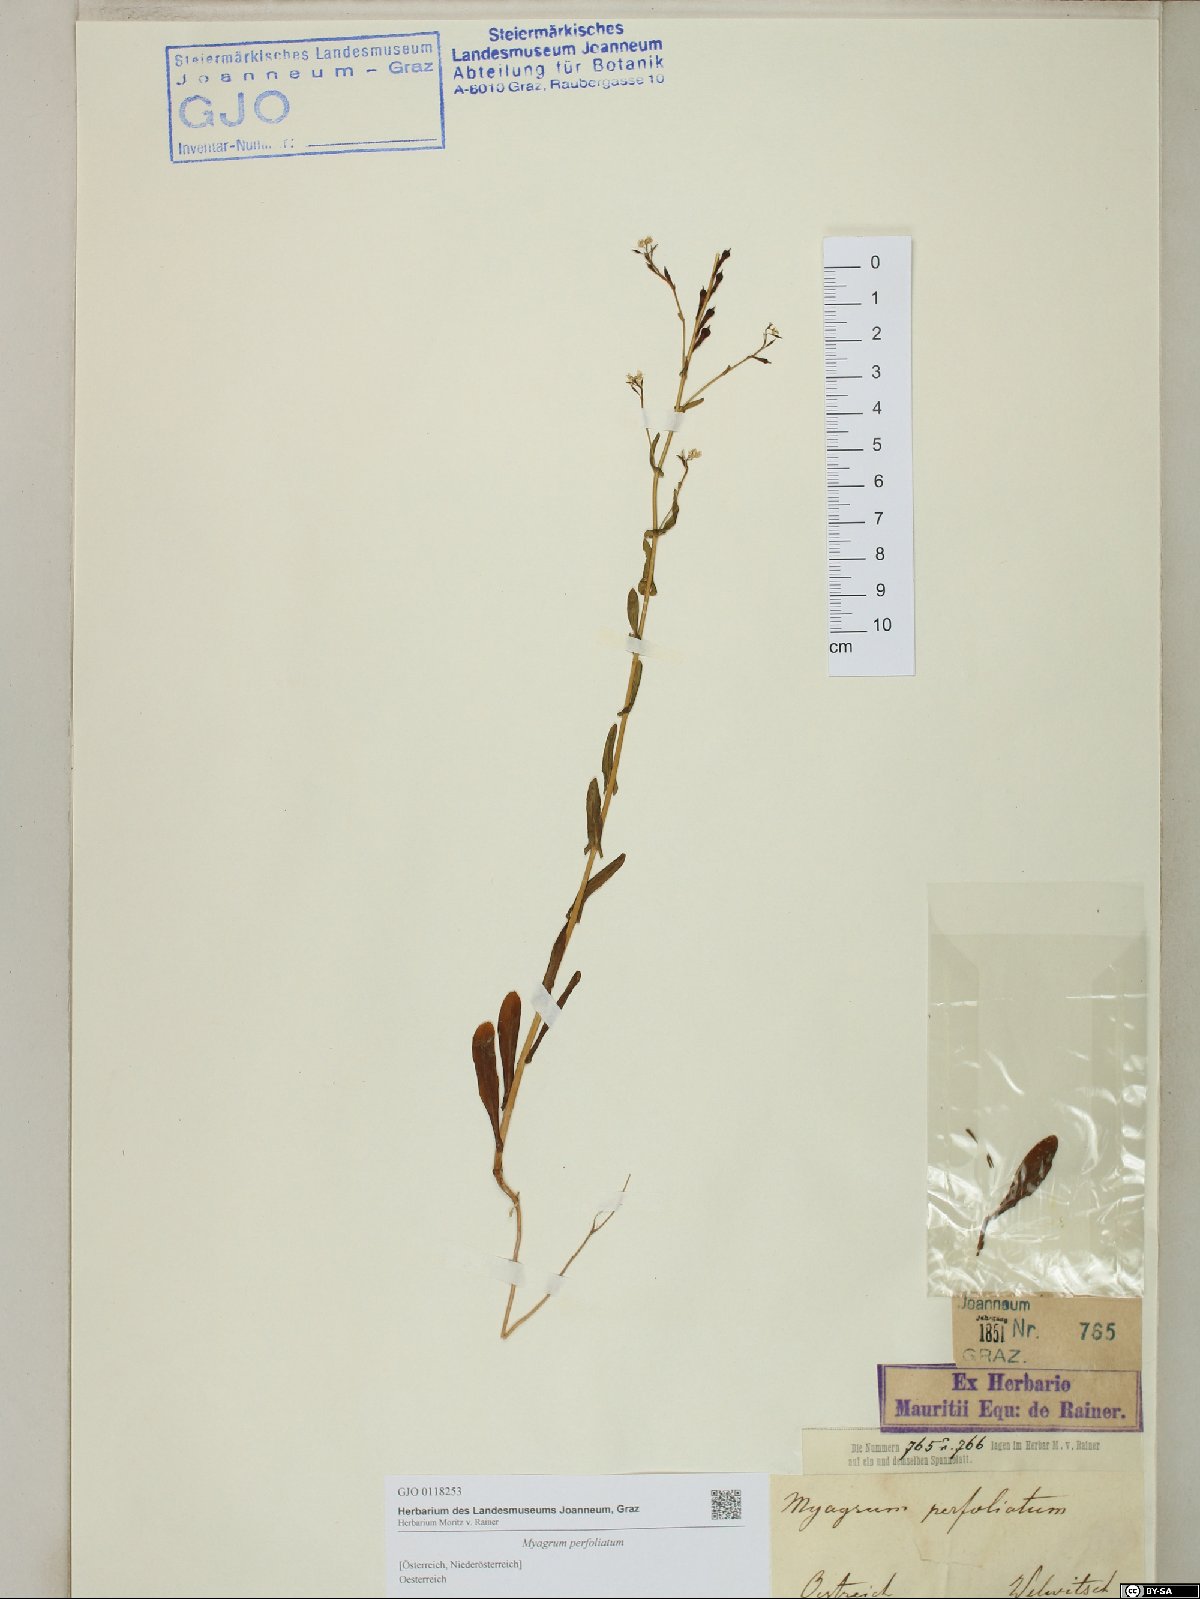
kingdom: Plantae
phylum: Tracheophyta
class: Magnoliopsida
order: Brassicales
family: Brassicaceae
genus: Myagrum
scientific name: Myagrum perfoliatum
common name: Mitre cress
